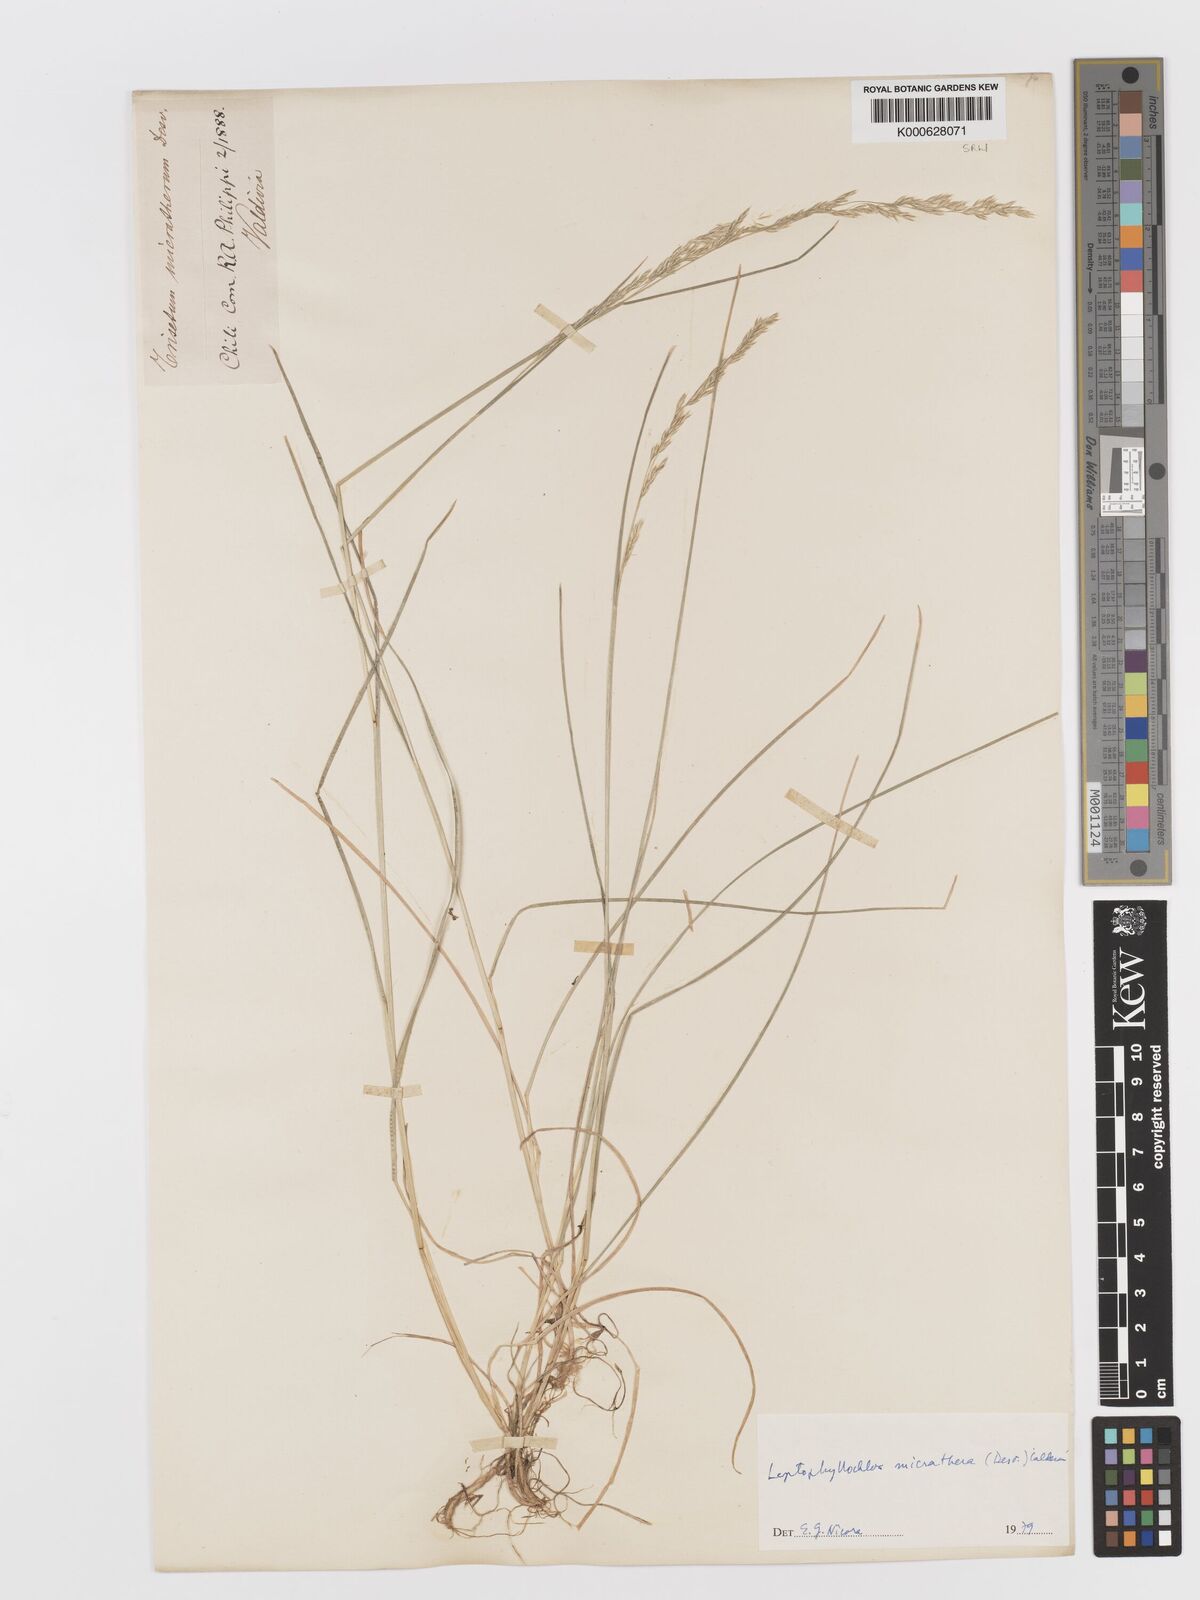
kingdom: Plantae
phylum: Tracheophyta
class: Liliopsida
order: Poales
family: Poaceae
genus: Cinnagrostis
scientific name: Cinnagrostis micrathera
